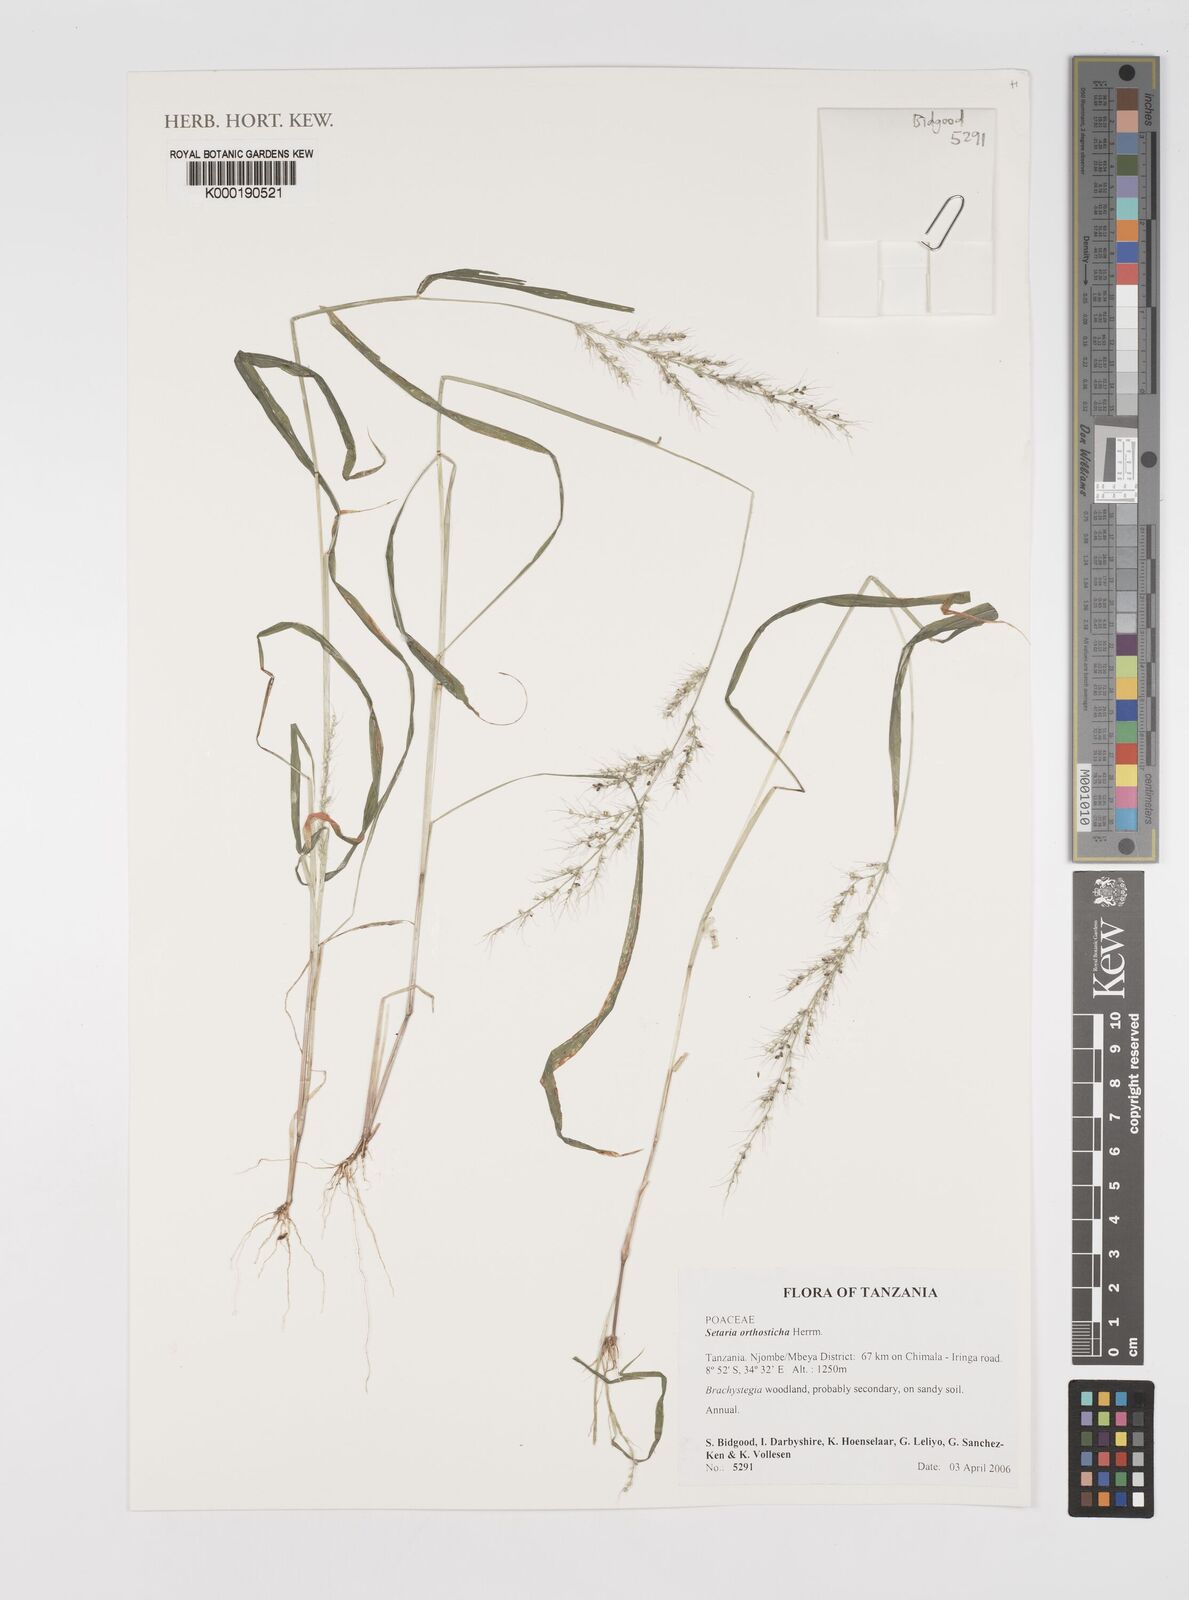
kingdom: Plantae
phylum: Tracheophyta
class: Liliopsida
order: Poales
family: Poaceae
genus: Setaria
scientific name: Setaria orthosticha
